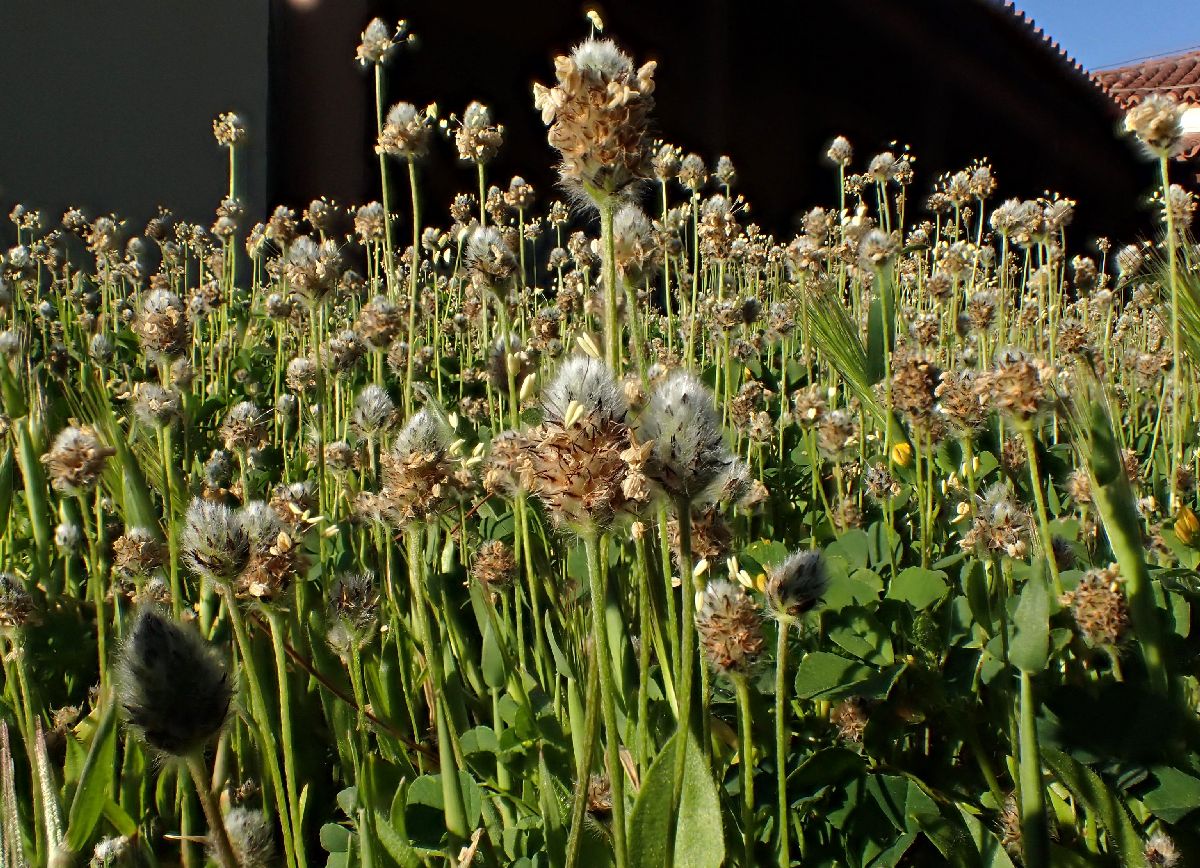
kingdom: Plantae
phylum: Tracheophyta
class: Magnoliopsida
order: Lamiales
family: Plantaginaceae
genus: Plantago
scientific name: Plantago lagopus
